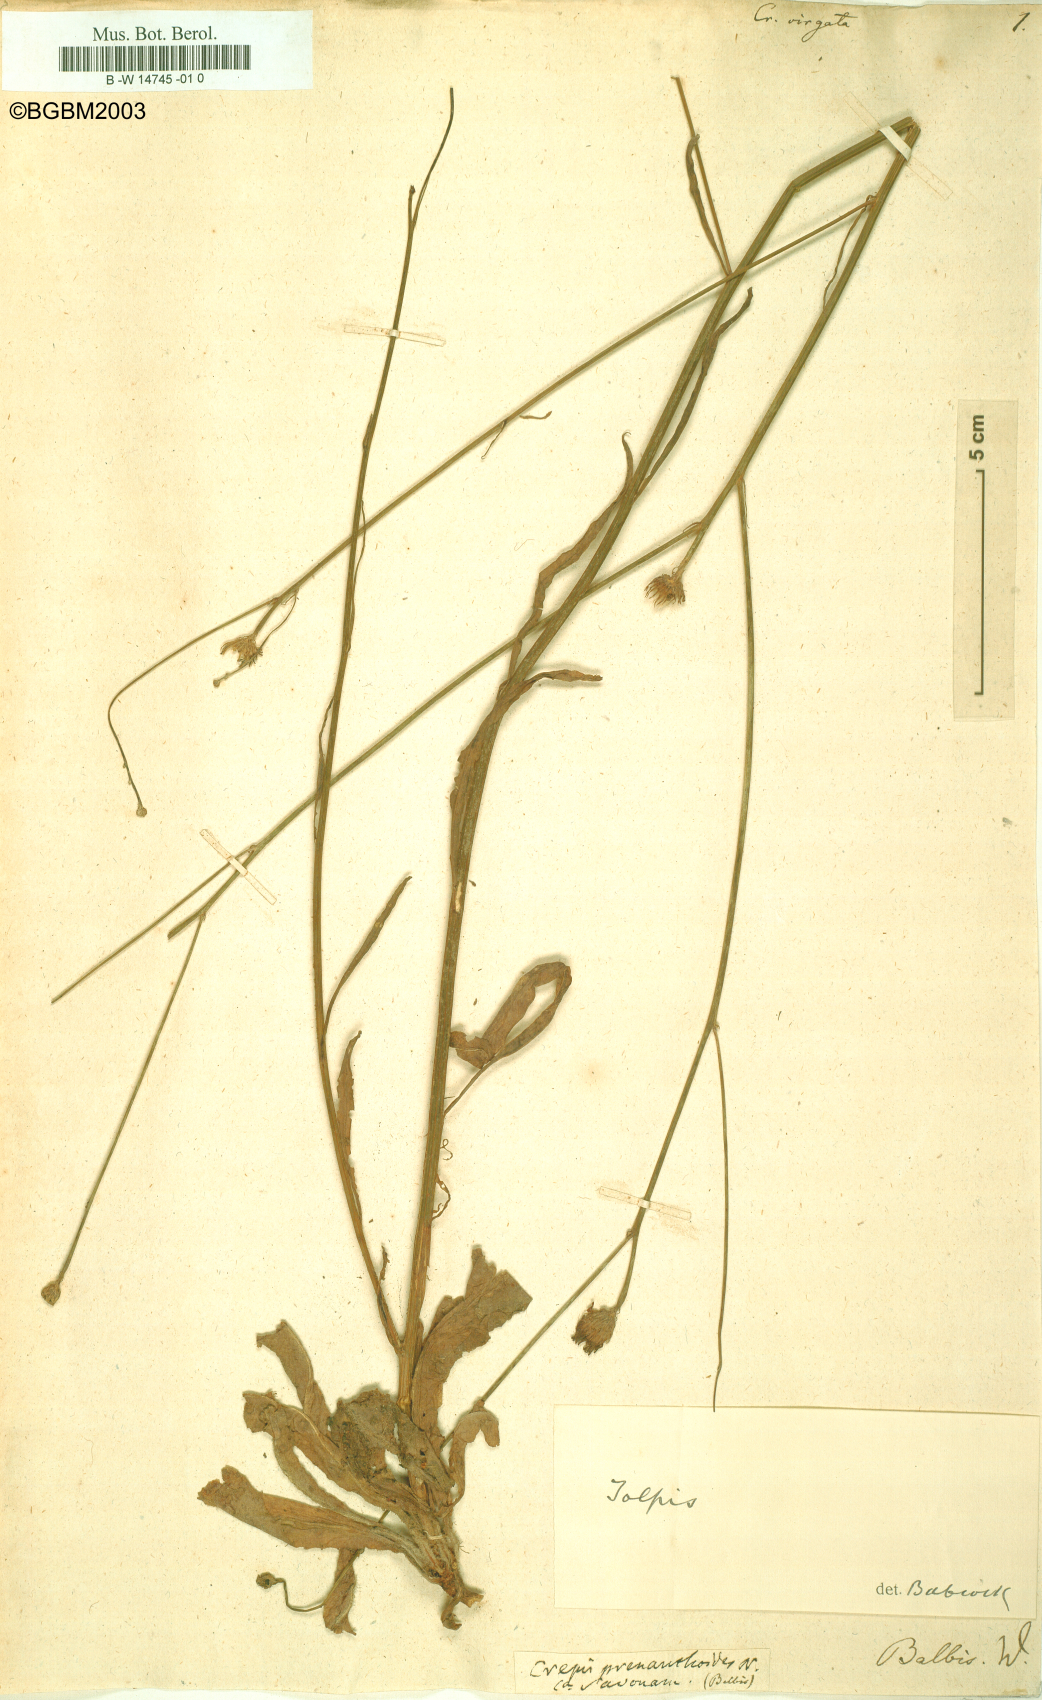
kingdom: Plantae
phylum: Tracheophyta
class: Magnoliopsida
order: Asterales
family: Asteraceae
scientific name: Asteraceae
